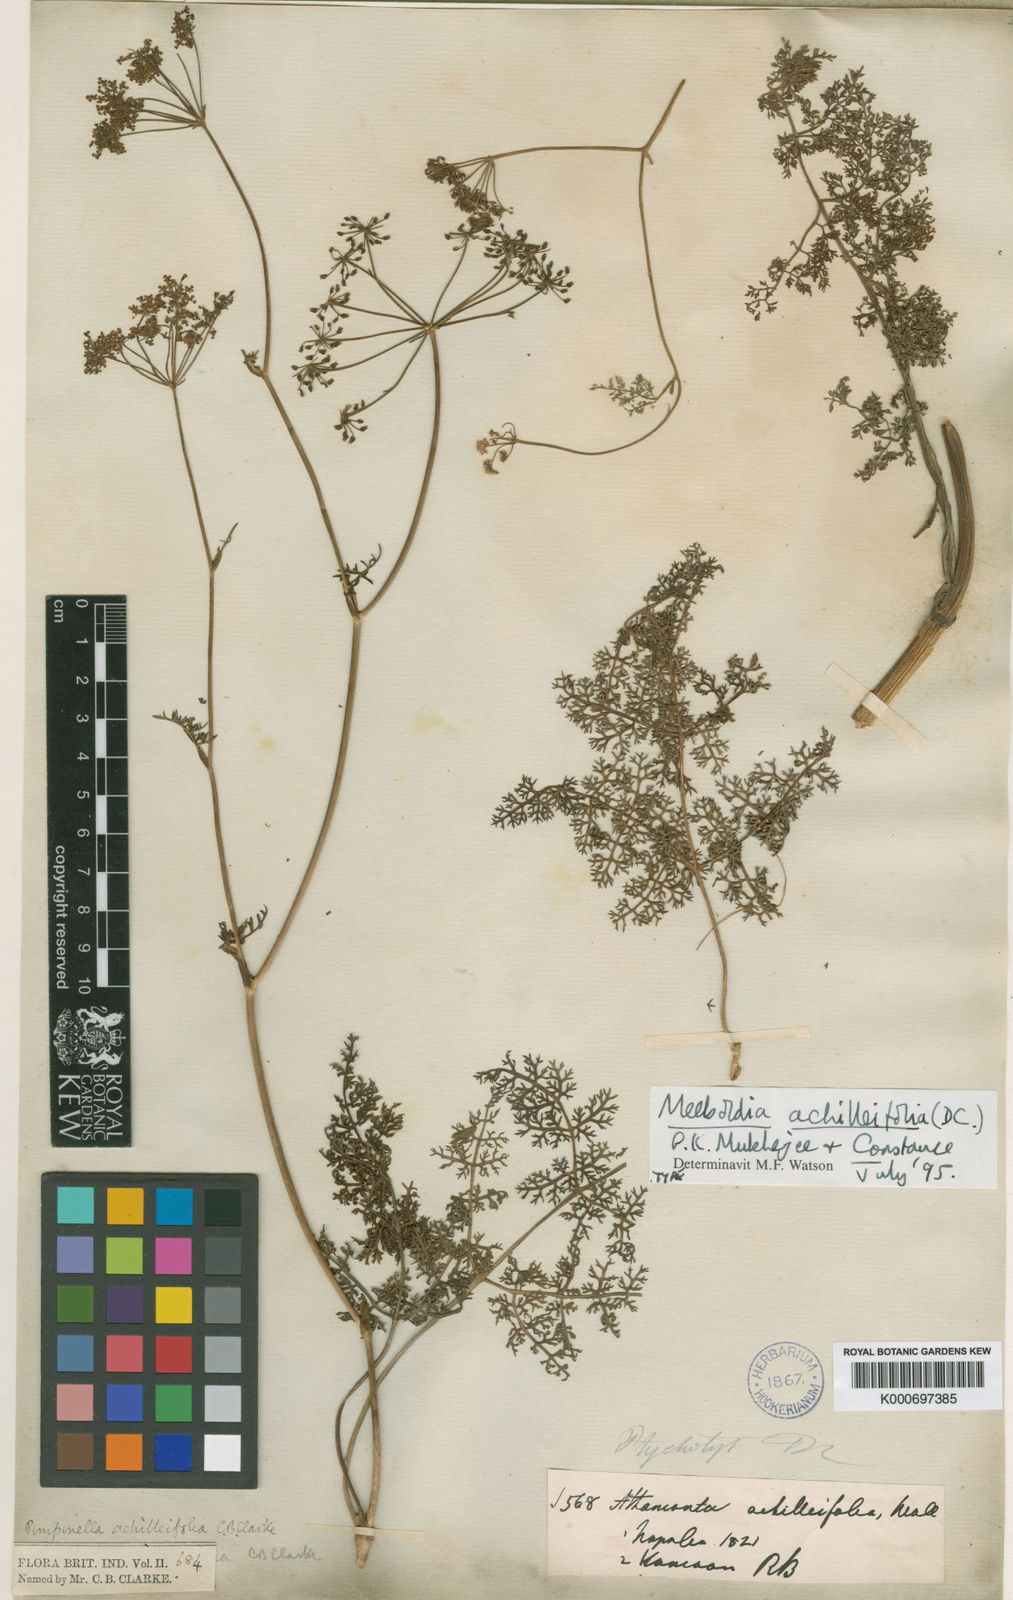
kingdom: Plantae
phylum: Tracheophyta
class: Magnoliopsida
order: Apiales
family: Apiaceae
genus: Meeboldia
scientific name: Meeboldia achilleifolia
